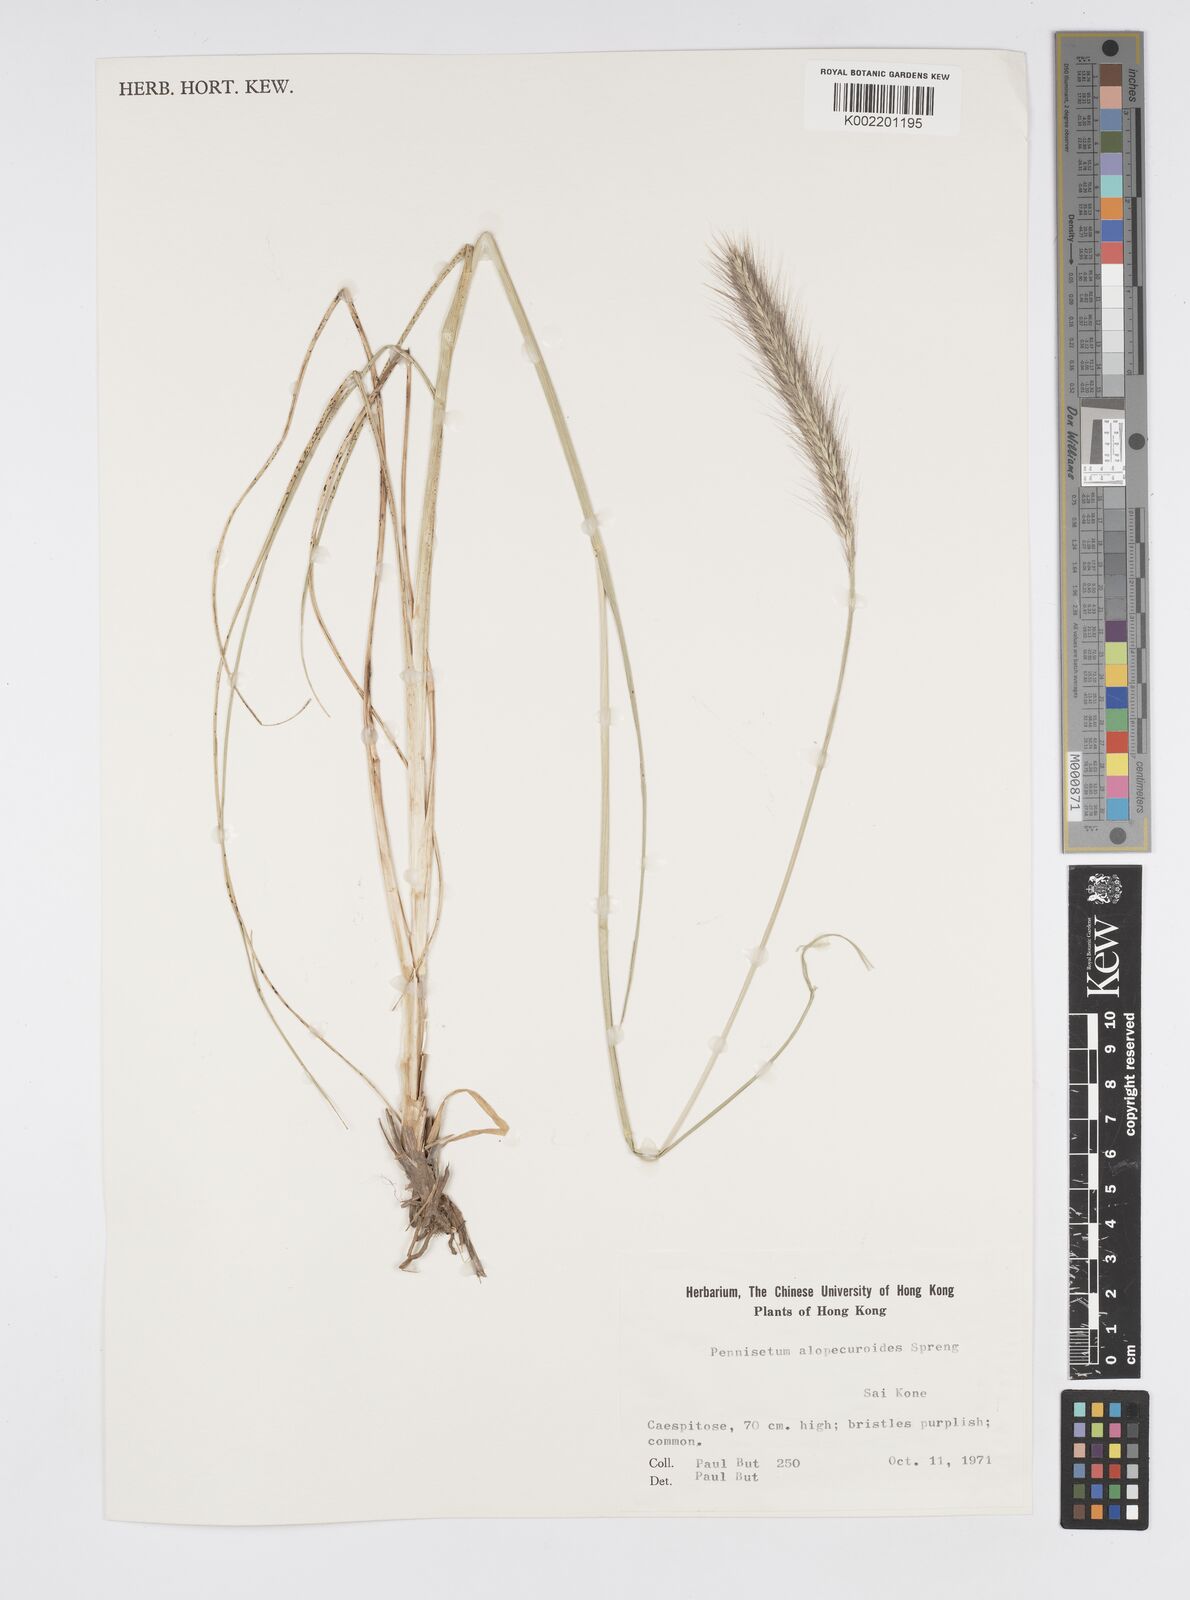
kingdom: Plantae
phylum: Tracheophyta
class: Liliopsida
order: Poales
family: Poaceae
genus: Cenchrus
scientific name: Cenchrus alopecuroides
